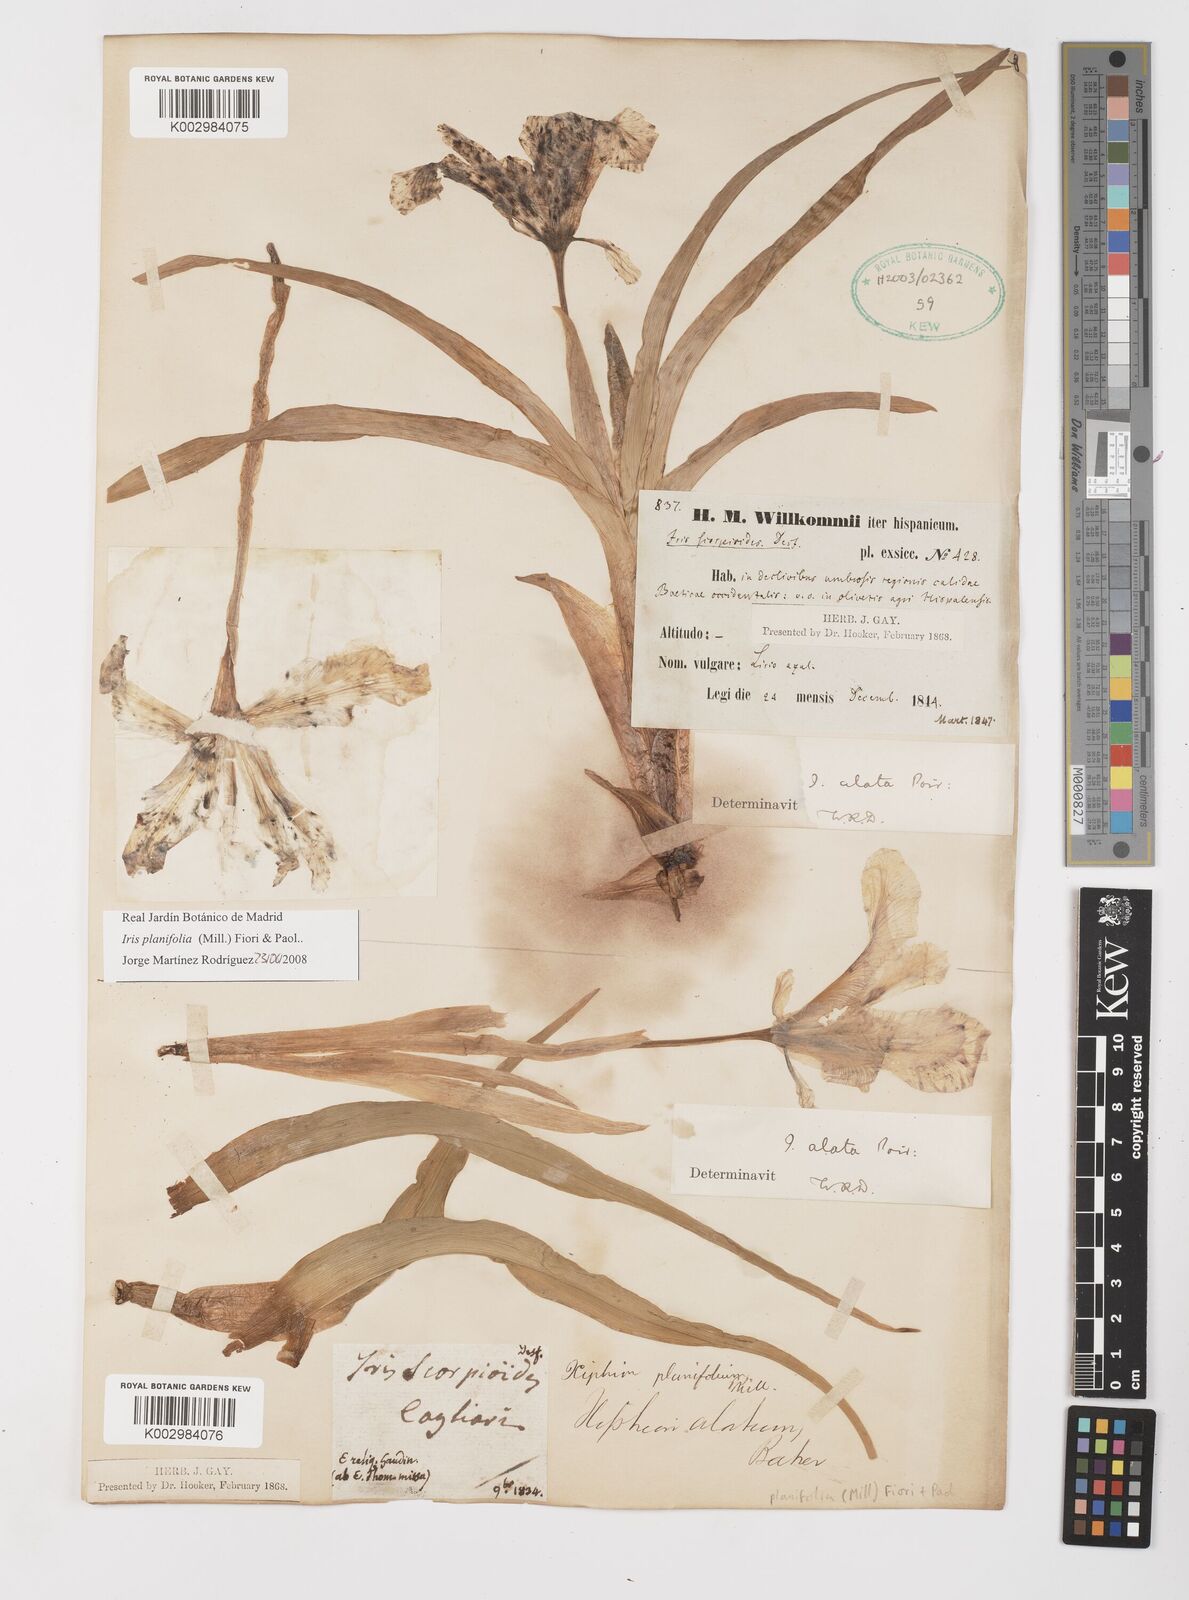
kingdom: Plantae
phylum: Tracheophyta
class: Liliopsida
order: Asparagales
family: Iridaceae
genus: Iris
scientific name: Iris planifolia
